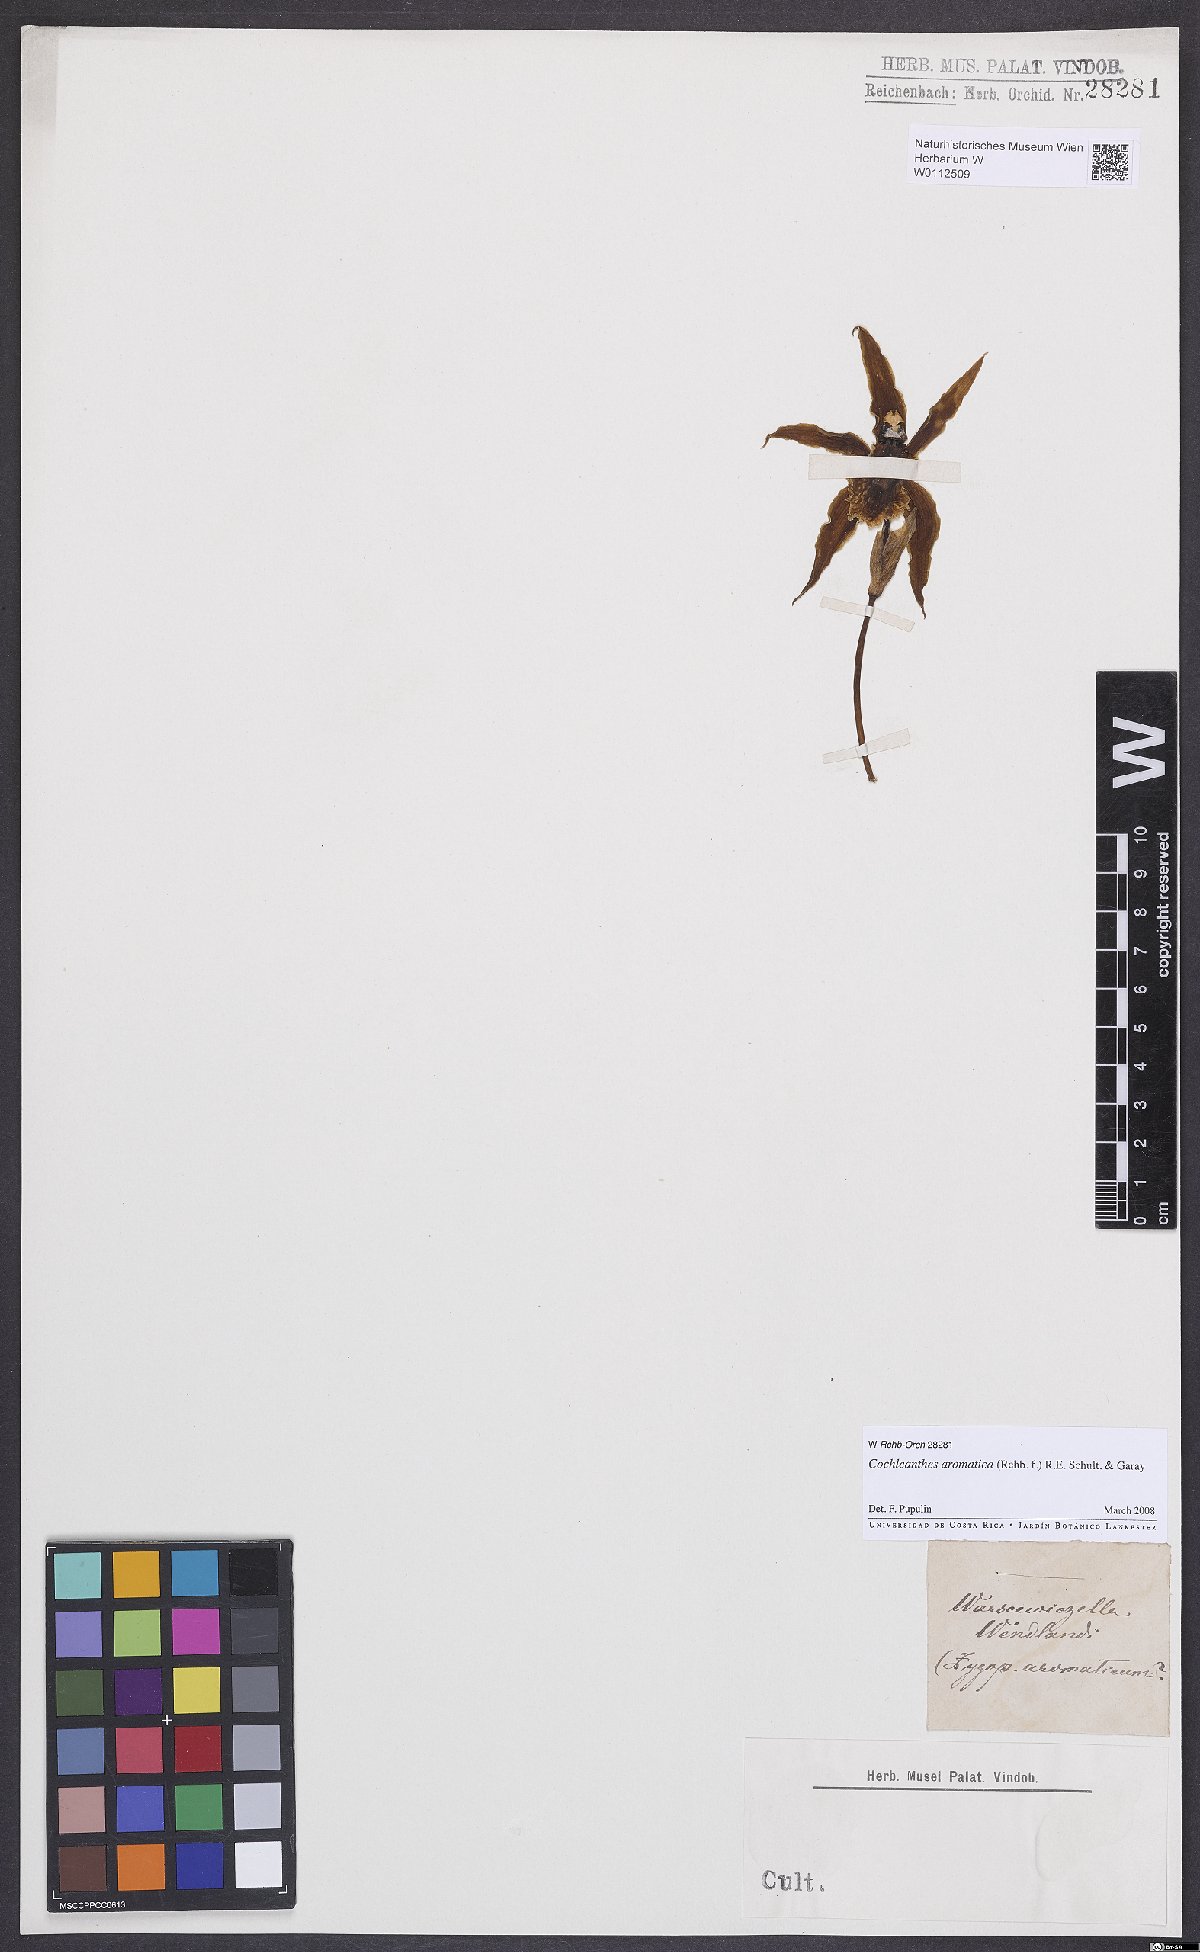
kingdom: Plantae
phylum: Tracheophyta
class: Liliopsida
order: Asparagales
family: Orchidaceae
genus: Cochleanthes
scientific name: Cochleanthes aromatica
